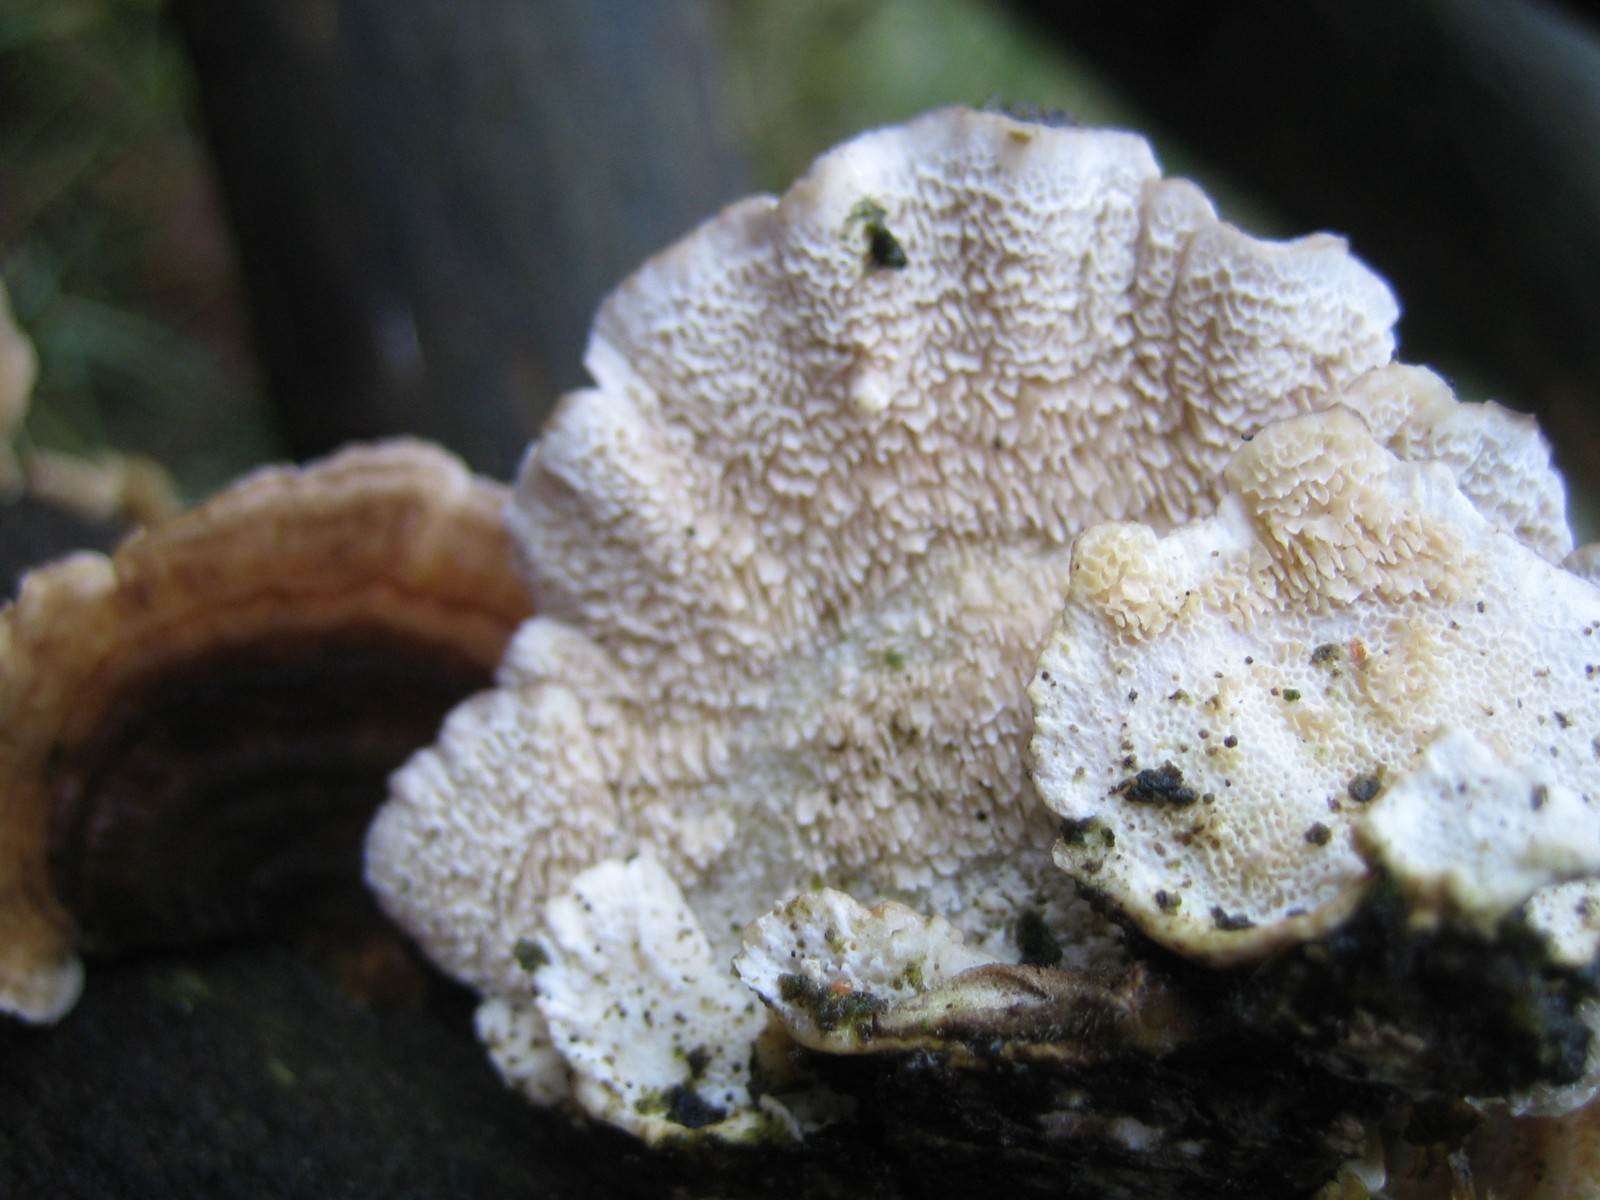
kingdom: Fungi
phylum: Basidiomycota
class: Agaricomycetes
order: Polyporales
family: Polyporaceae
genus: Trametes
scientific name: Trametes versicolor
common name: broget læderporesvamp
